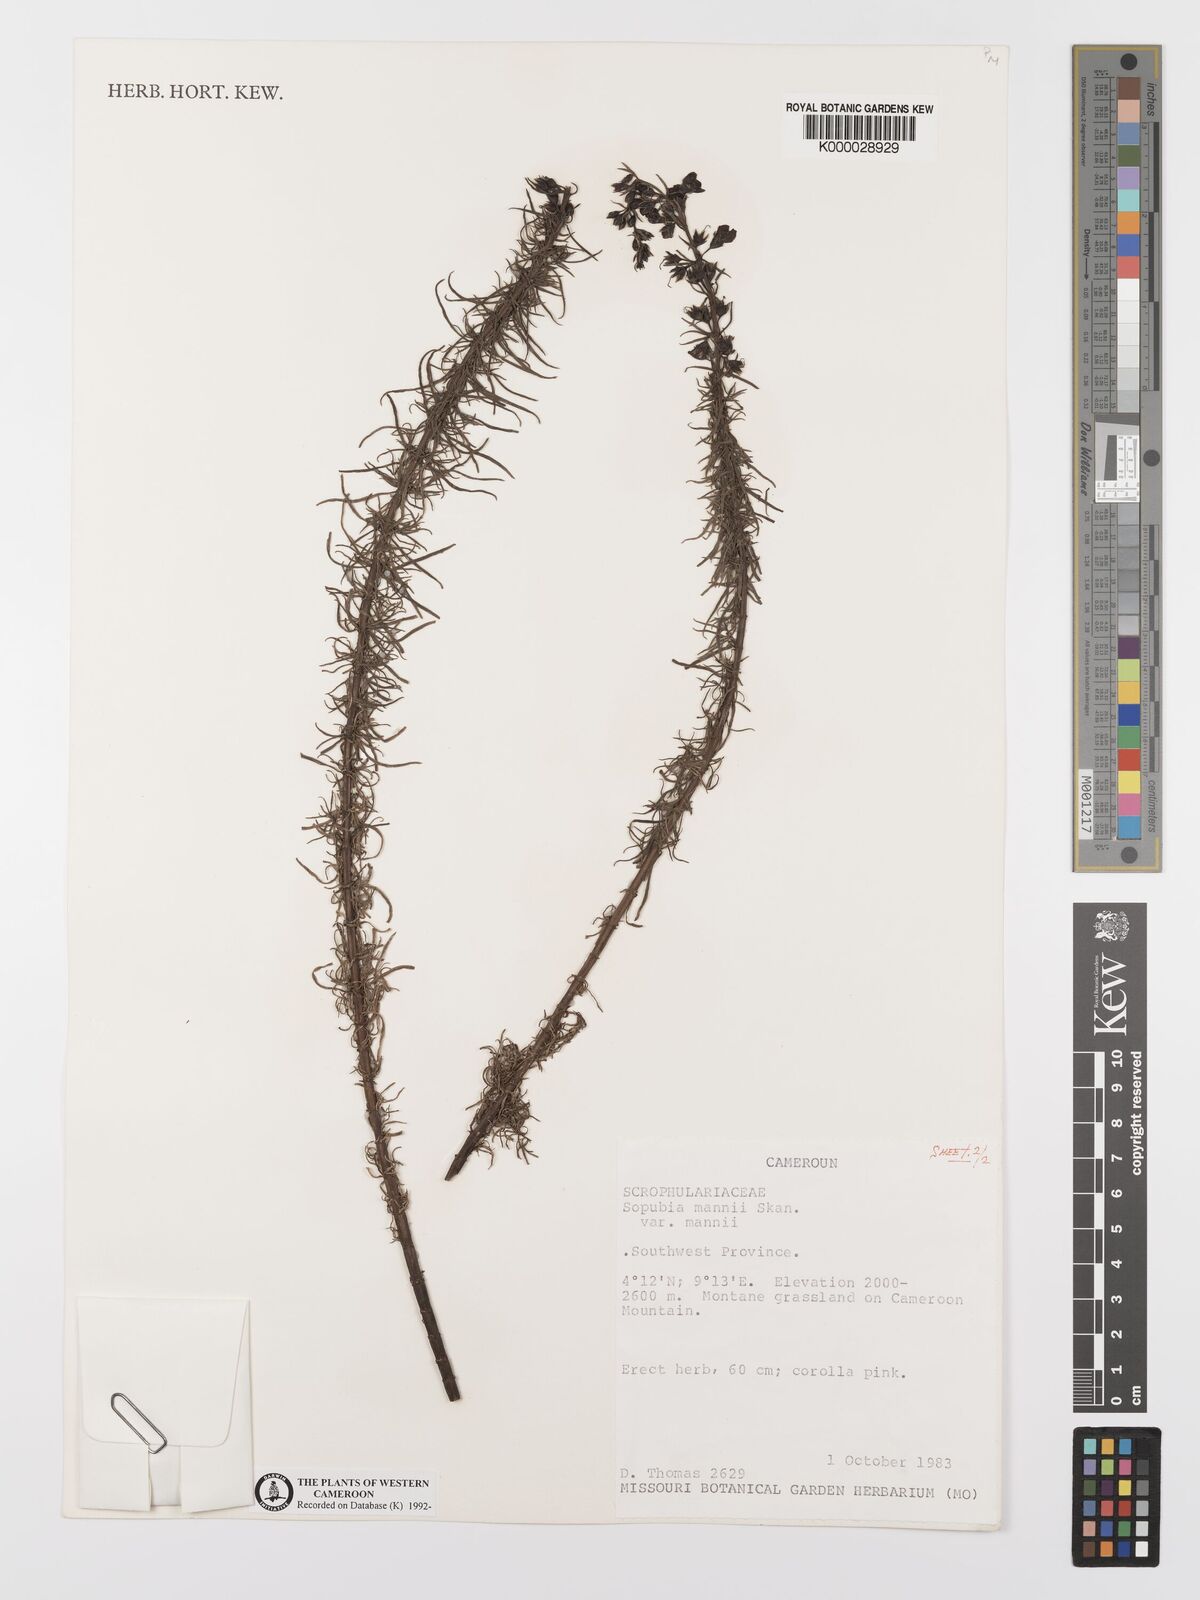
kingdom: Plantae
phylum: Tracheophyta
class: Magnoliopsida
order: Lamiales
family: Orobanchaceae
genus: Sopubia
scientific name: Sopubia mannii
